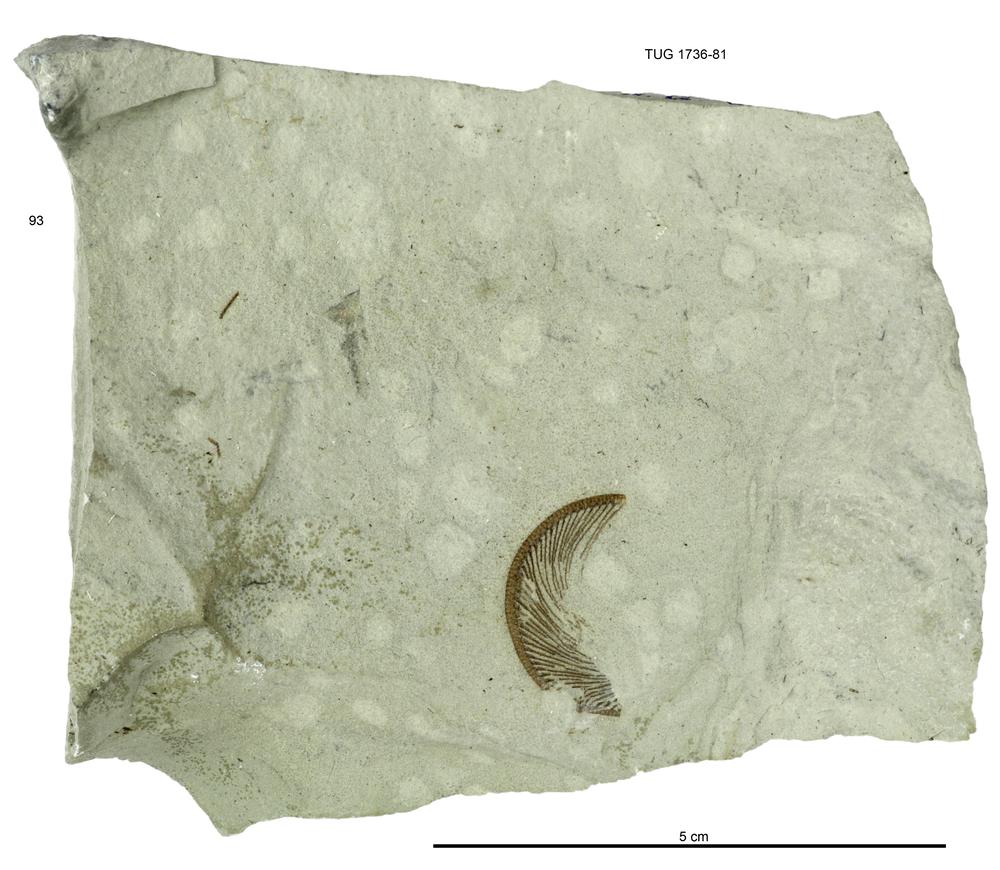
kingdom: Animalia
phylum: Echinodermata
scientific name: Echinodermata
